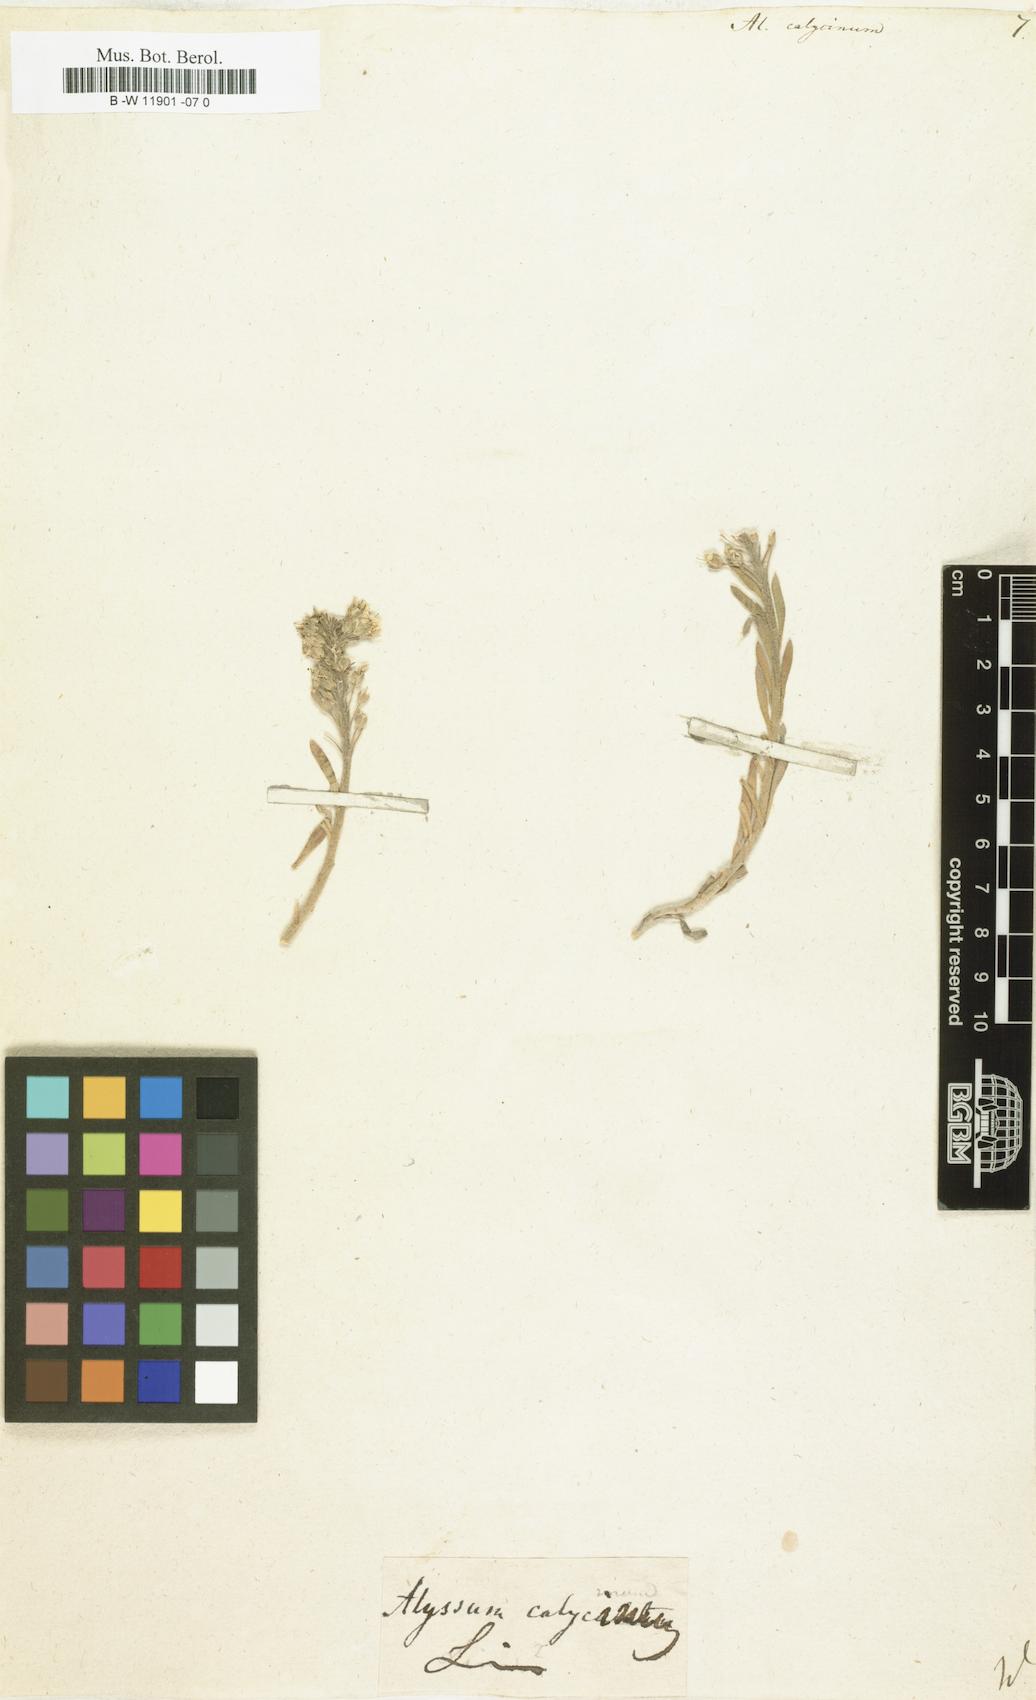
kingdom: Plantae
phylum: Tracheophyta
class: Magnoliopsida
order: Brassicales
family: Brassicaceae
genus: Alyssum
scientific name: Alyssum alyssoides
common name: Small alison
